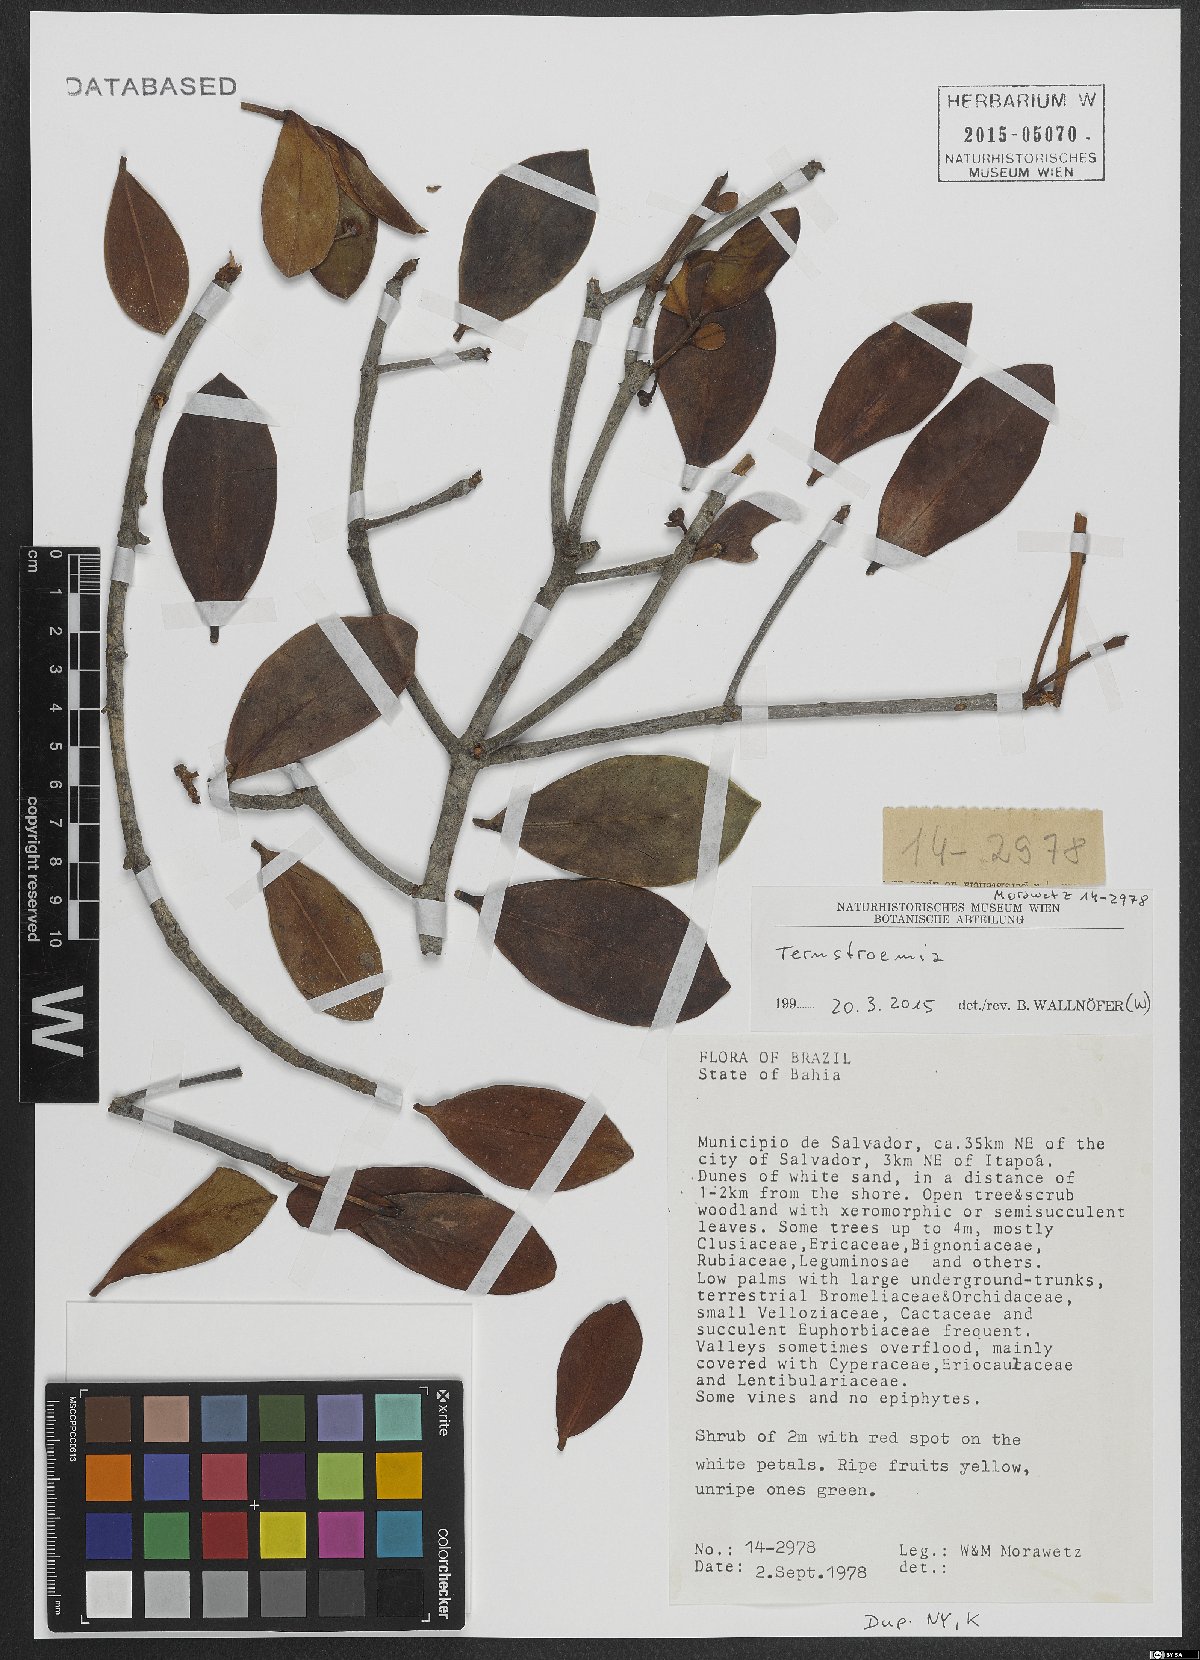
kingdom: Plantae
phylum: Tracheophyta
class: Magnoliopsida
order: Ericales
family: Pentaphylacaceae
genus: Ternstroemia
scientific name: Ternstroemia
